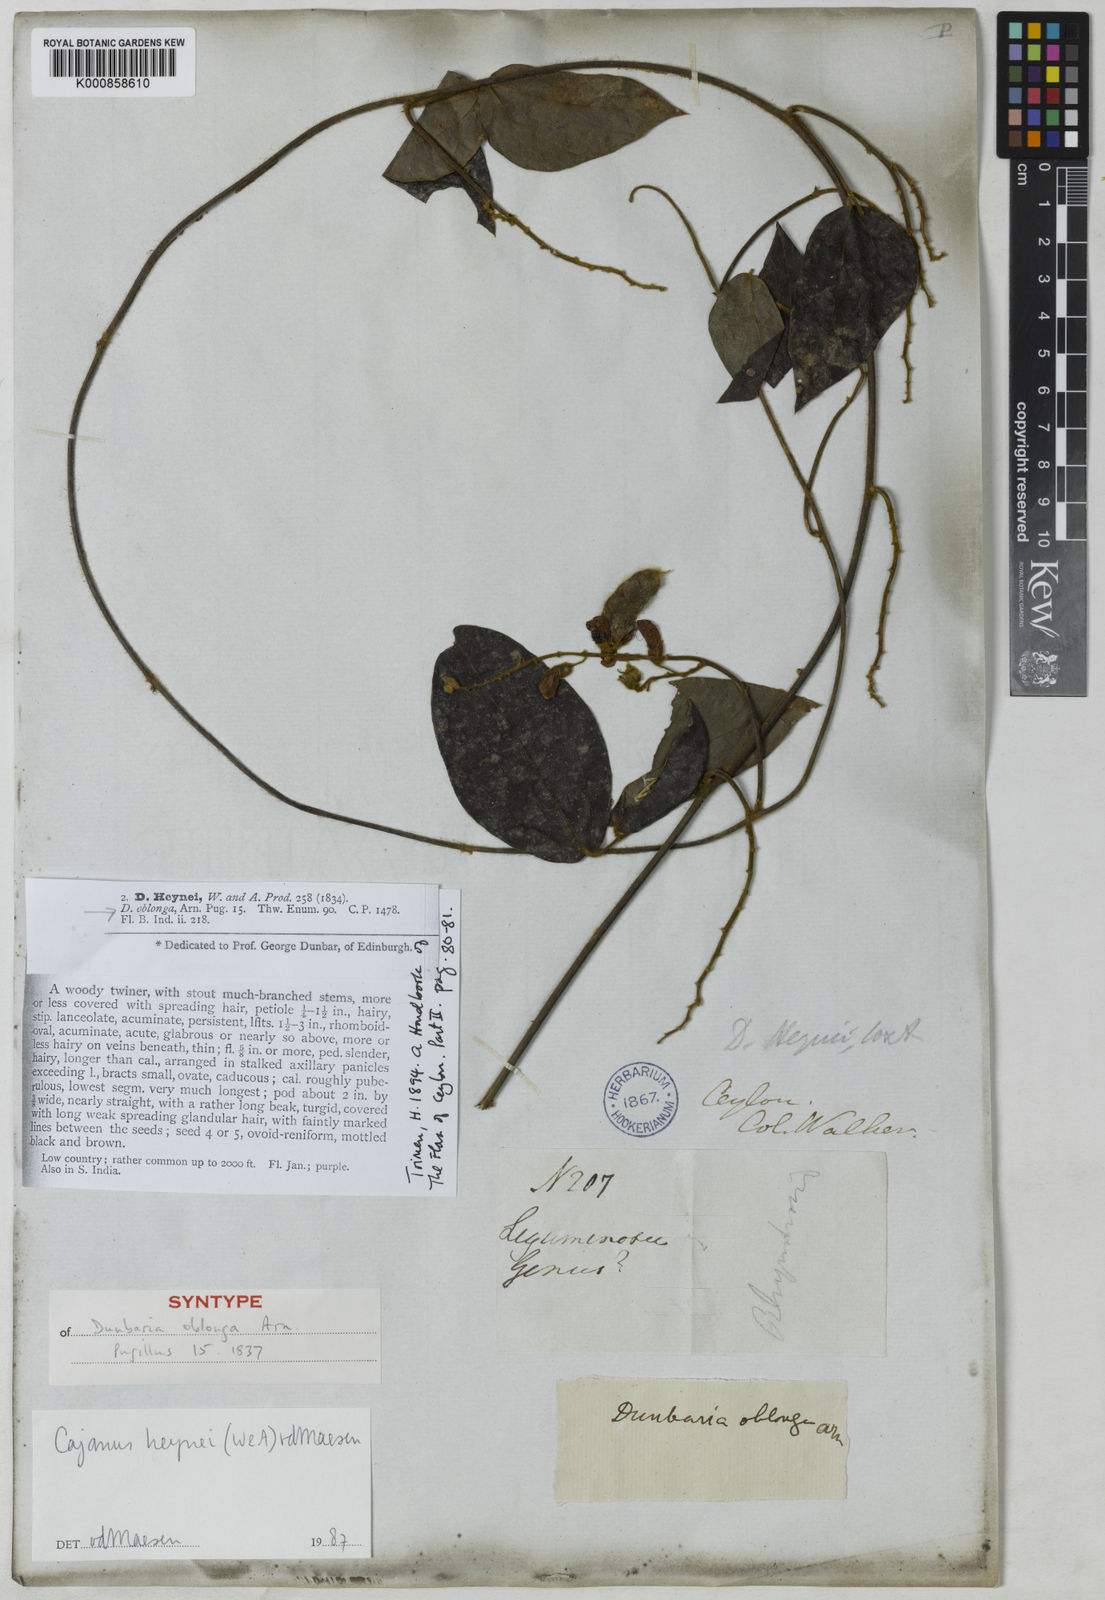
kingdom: Plantae
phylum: Tracheophyta
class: Magnoliopsida
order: Fabales
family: Fabaceae
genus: Cajanus
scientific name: Cajanus heynei
